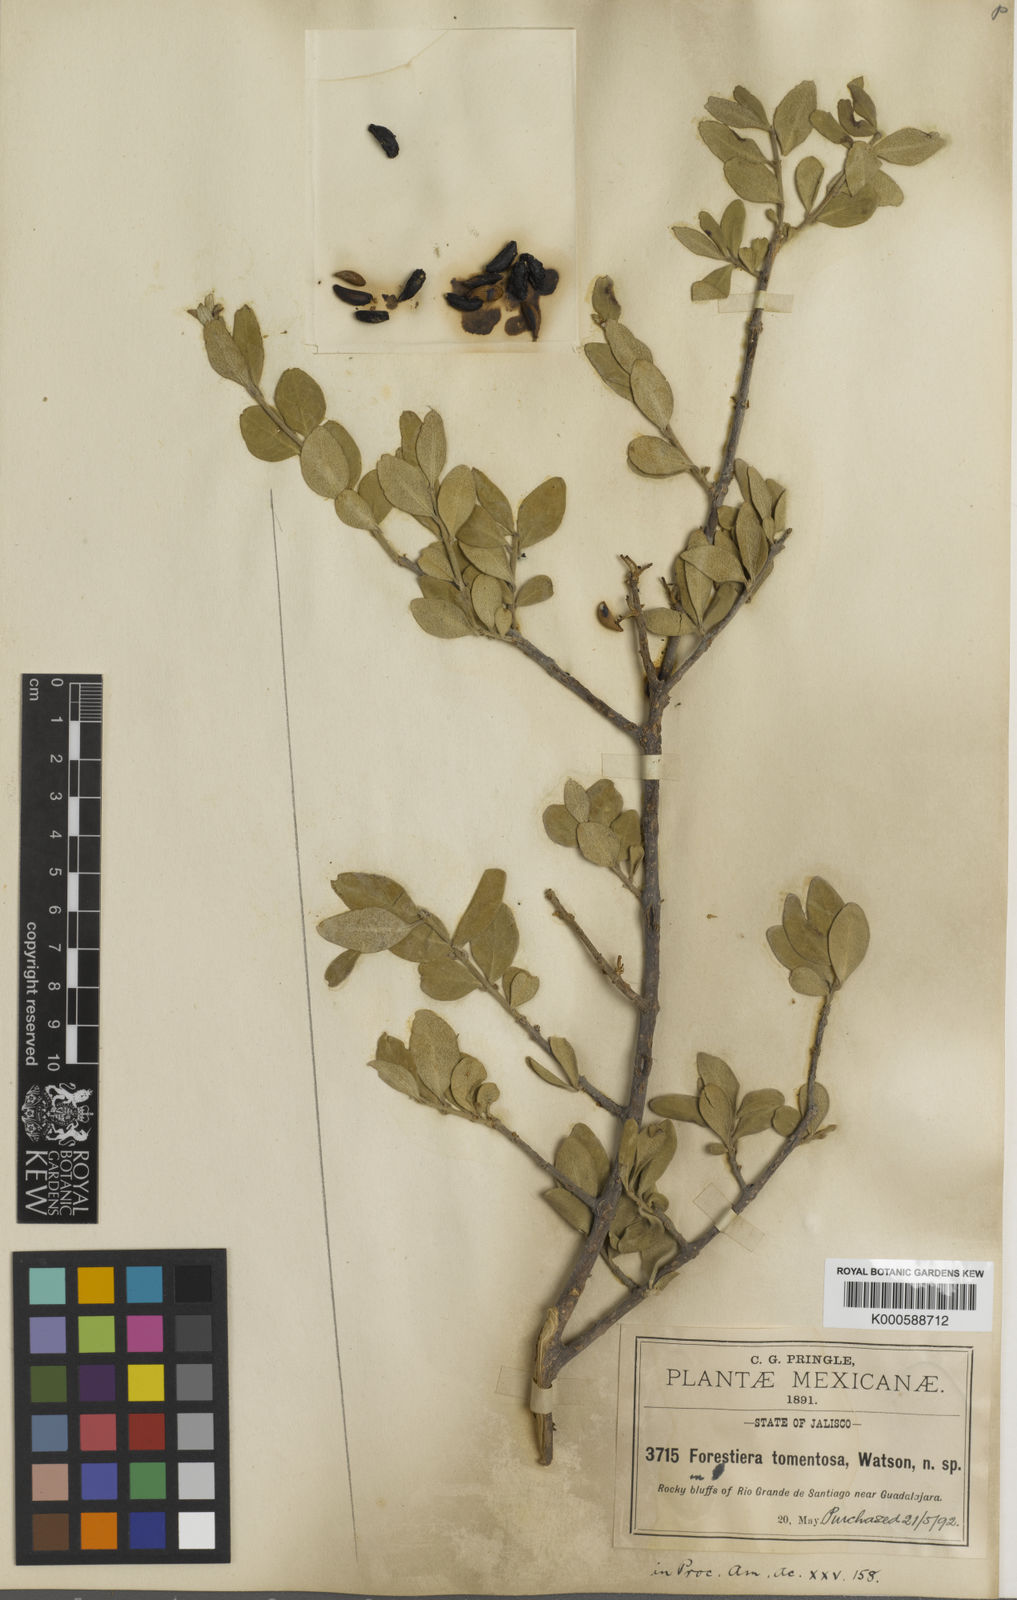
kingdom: Plantae
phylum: Tracheophyta
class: Magnoliopsida
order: Lamiales
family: Oleaceae
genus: Forestiera
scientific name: Forestiera tomentosa
